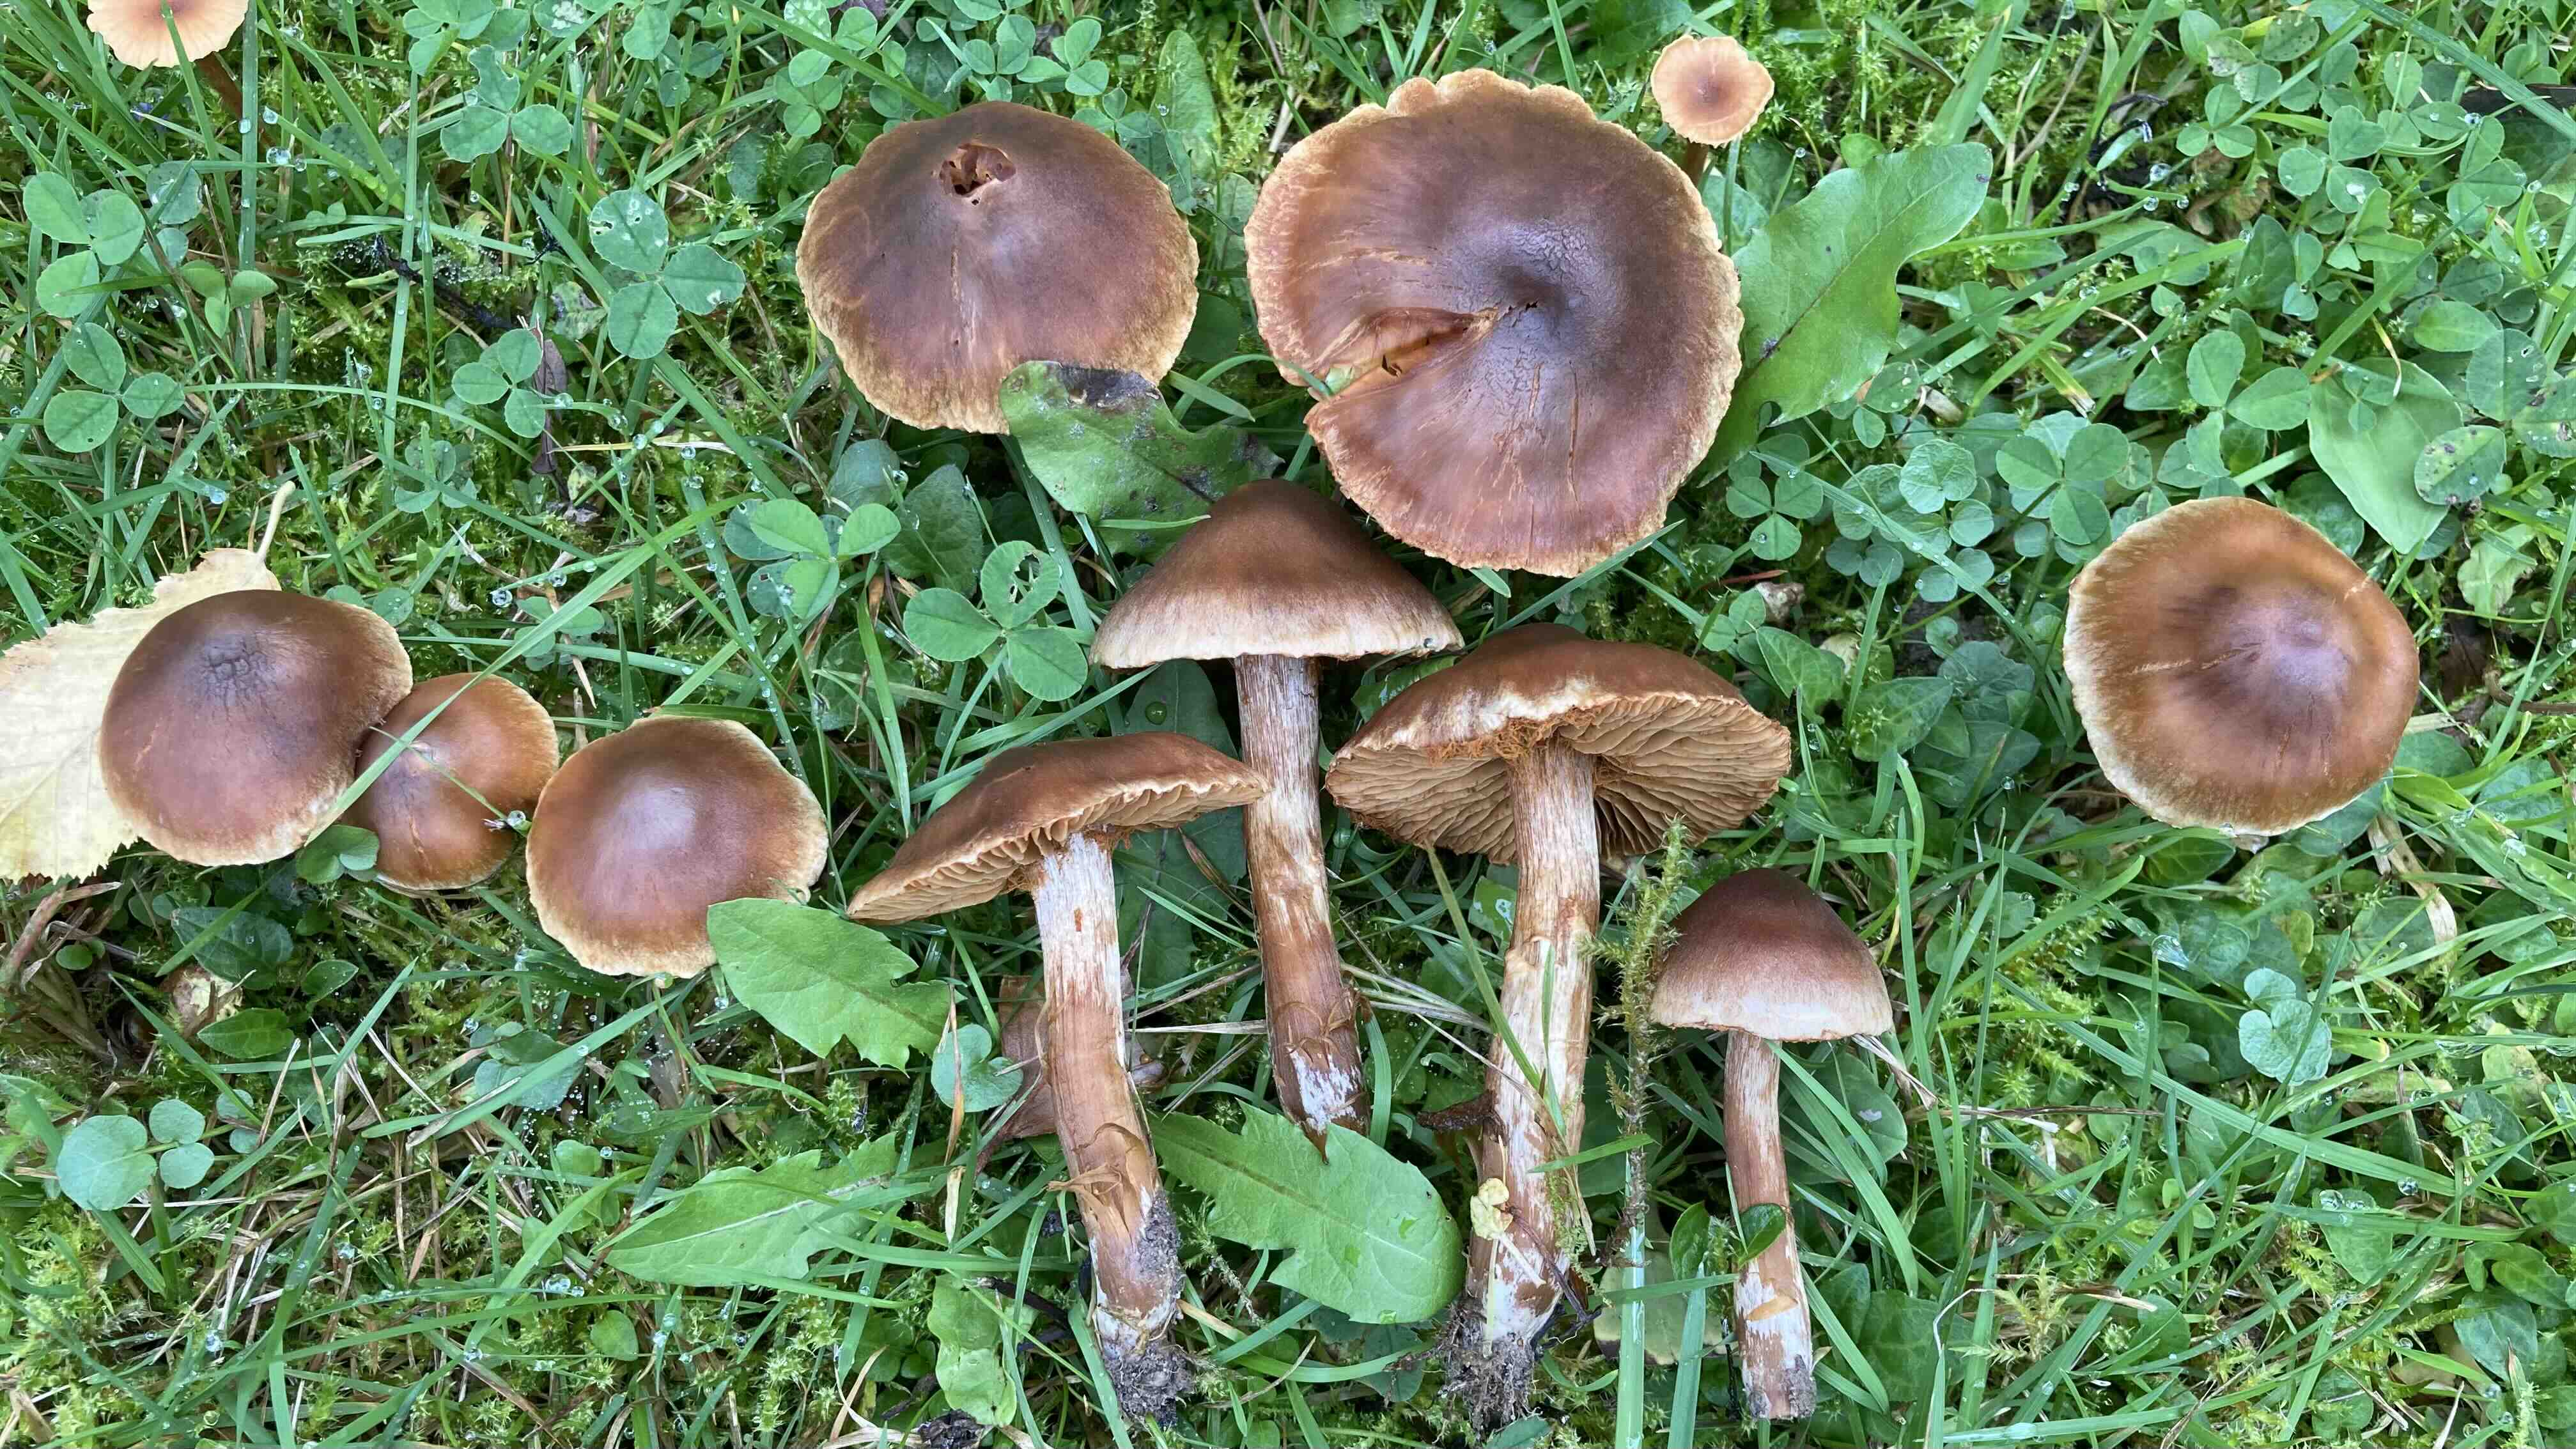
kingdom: Fungi
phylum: Basidiomycota
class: Agaricomycetes
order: Agaricales
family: Cortinariaceae
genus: Cortinarius
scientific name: Cortinarius
